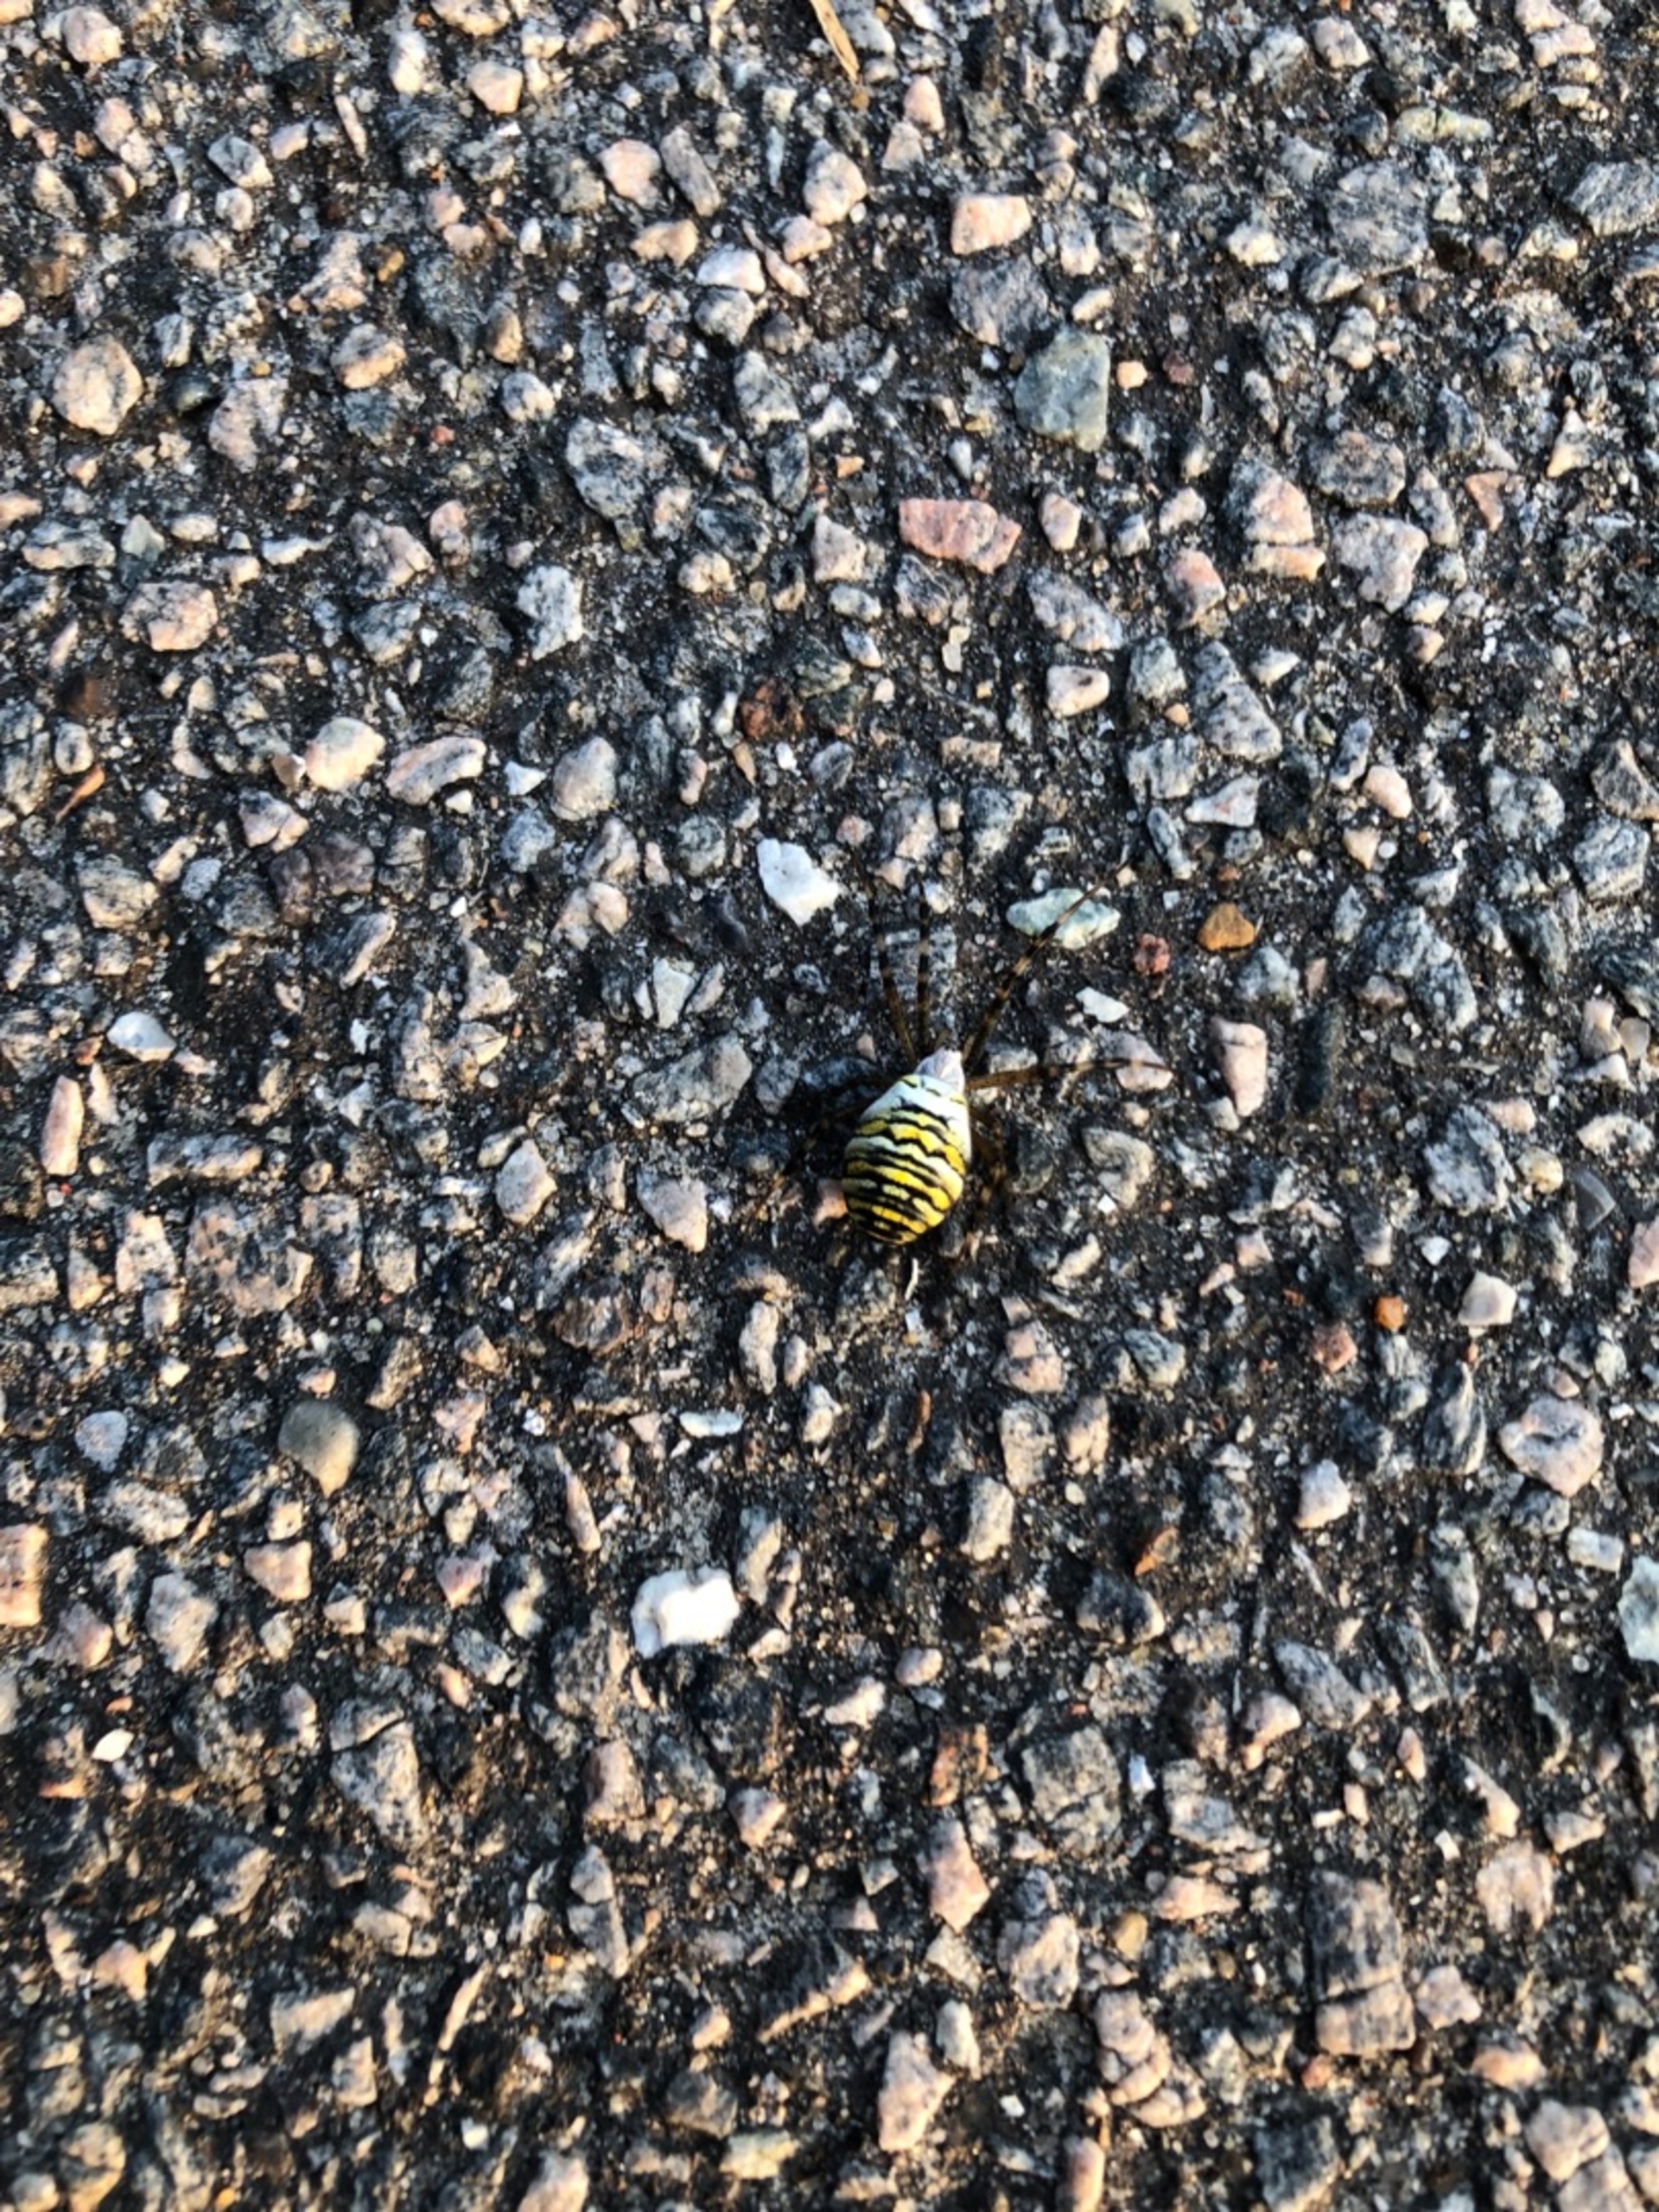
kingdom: Animalia
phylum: Arthropoda
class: Arachnida
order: Araneae
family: Araneidae
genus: Argiope
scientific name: Argiope bruennichi
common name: Hvepseedderkop
